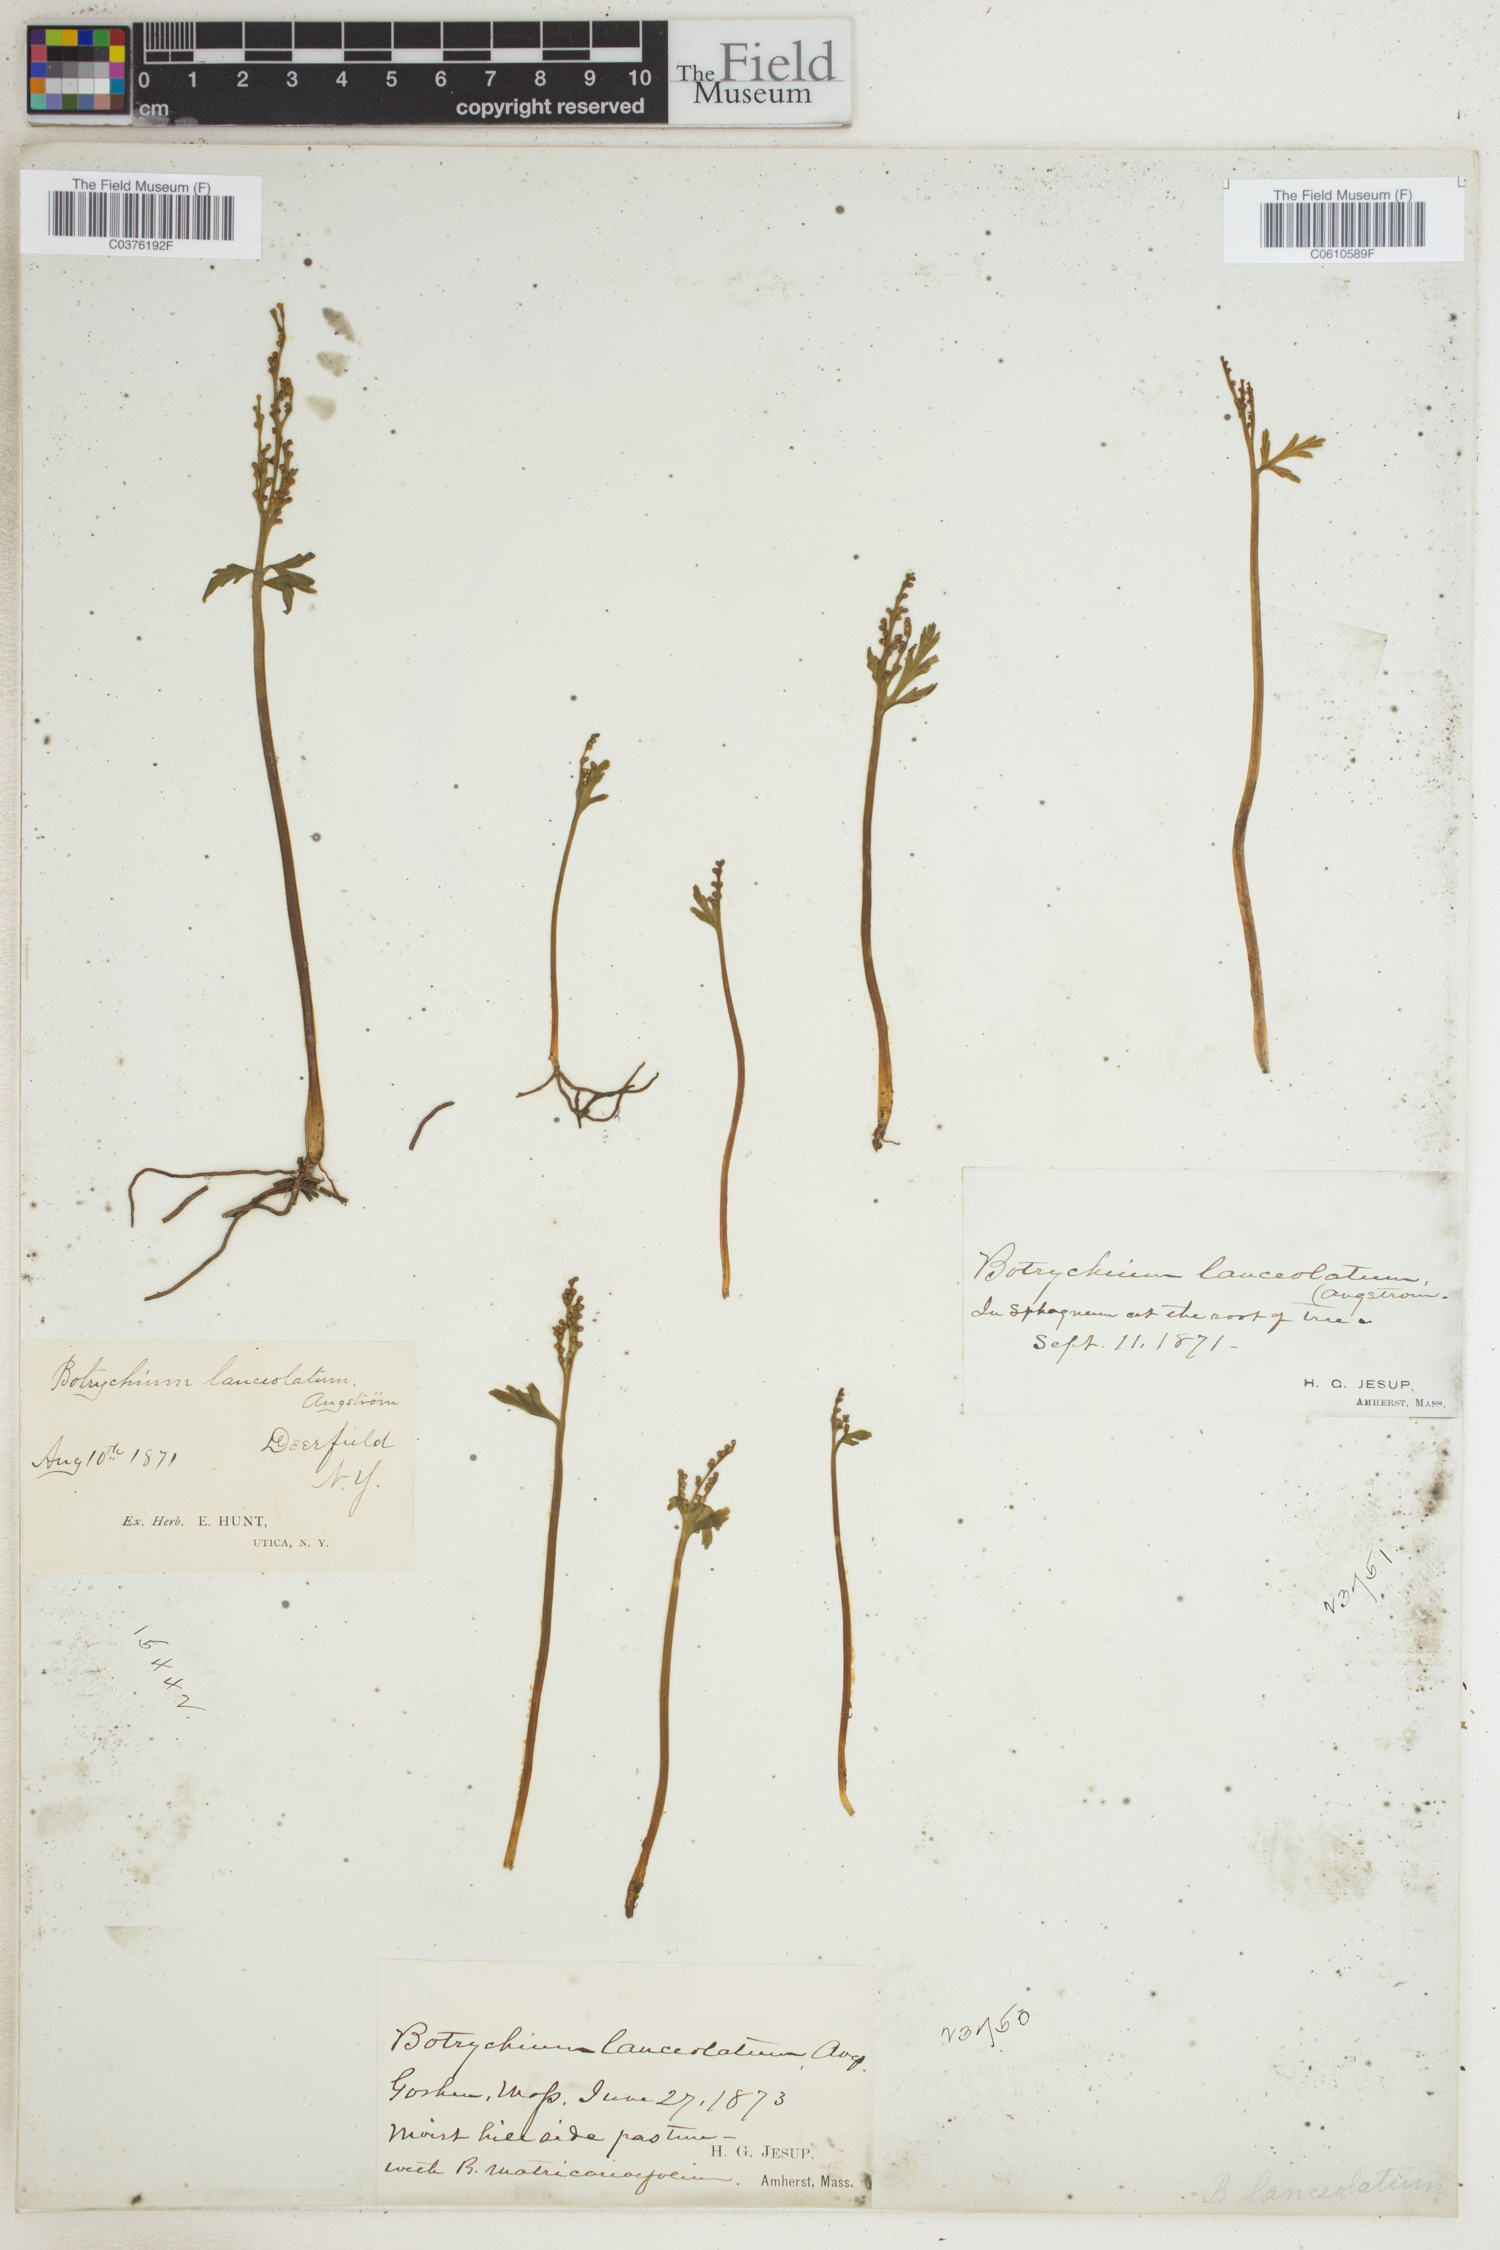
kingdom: Plantae
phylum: Tracheophyta
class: Polypodiopsida
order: Ophioglossales
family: Ophioglossaceae
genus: Botrychium
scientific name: Botrychium lanceolatum
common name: Lance-leaved moonwort
